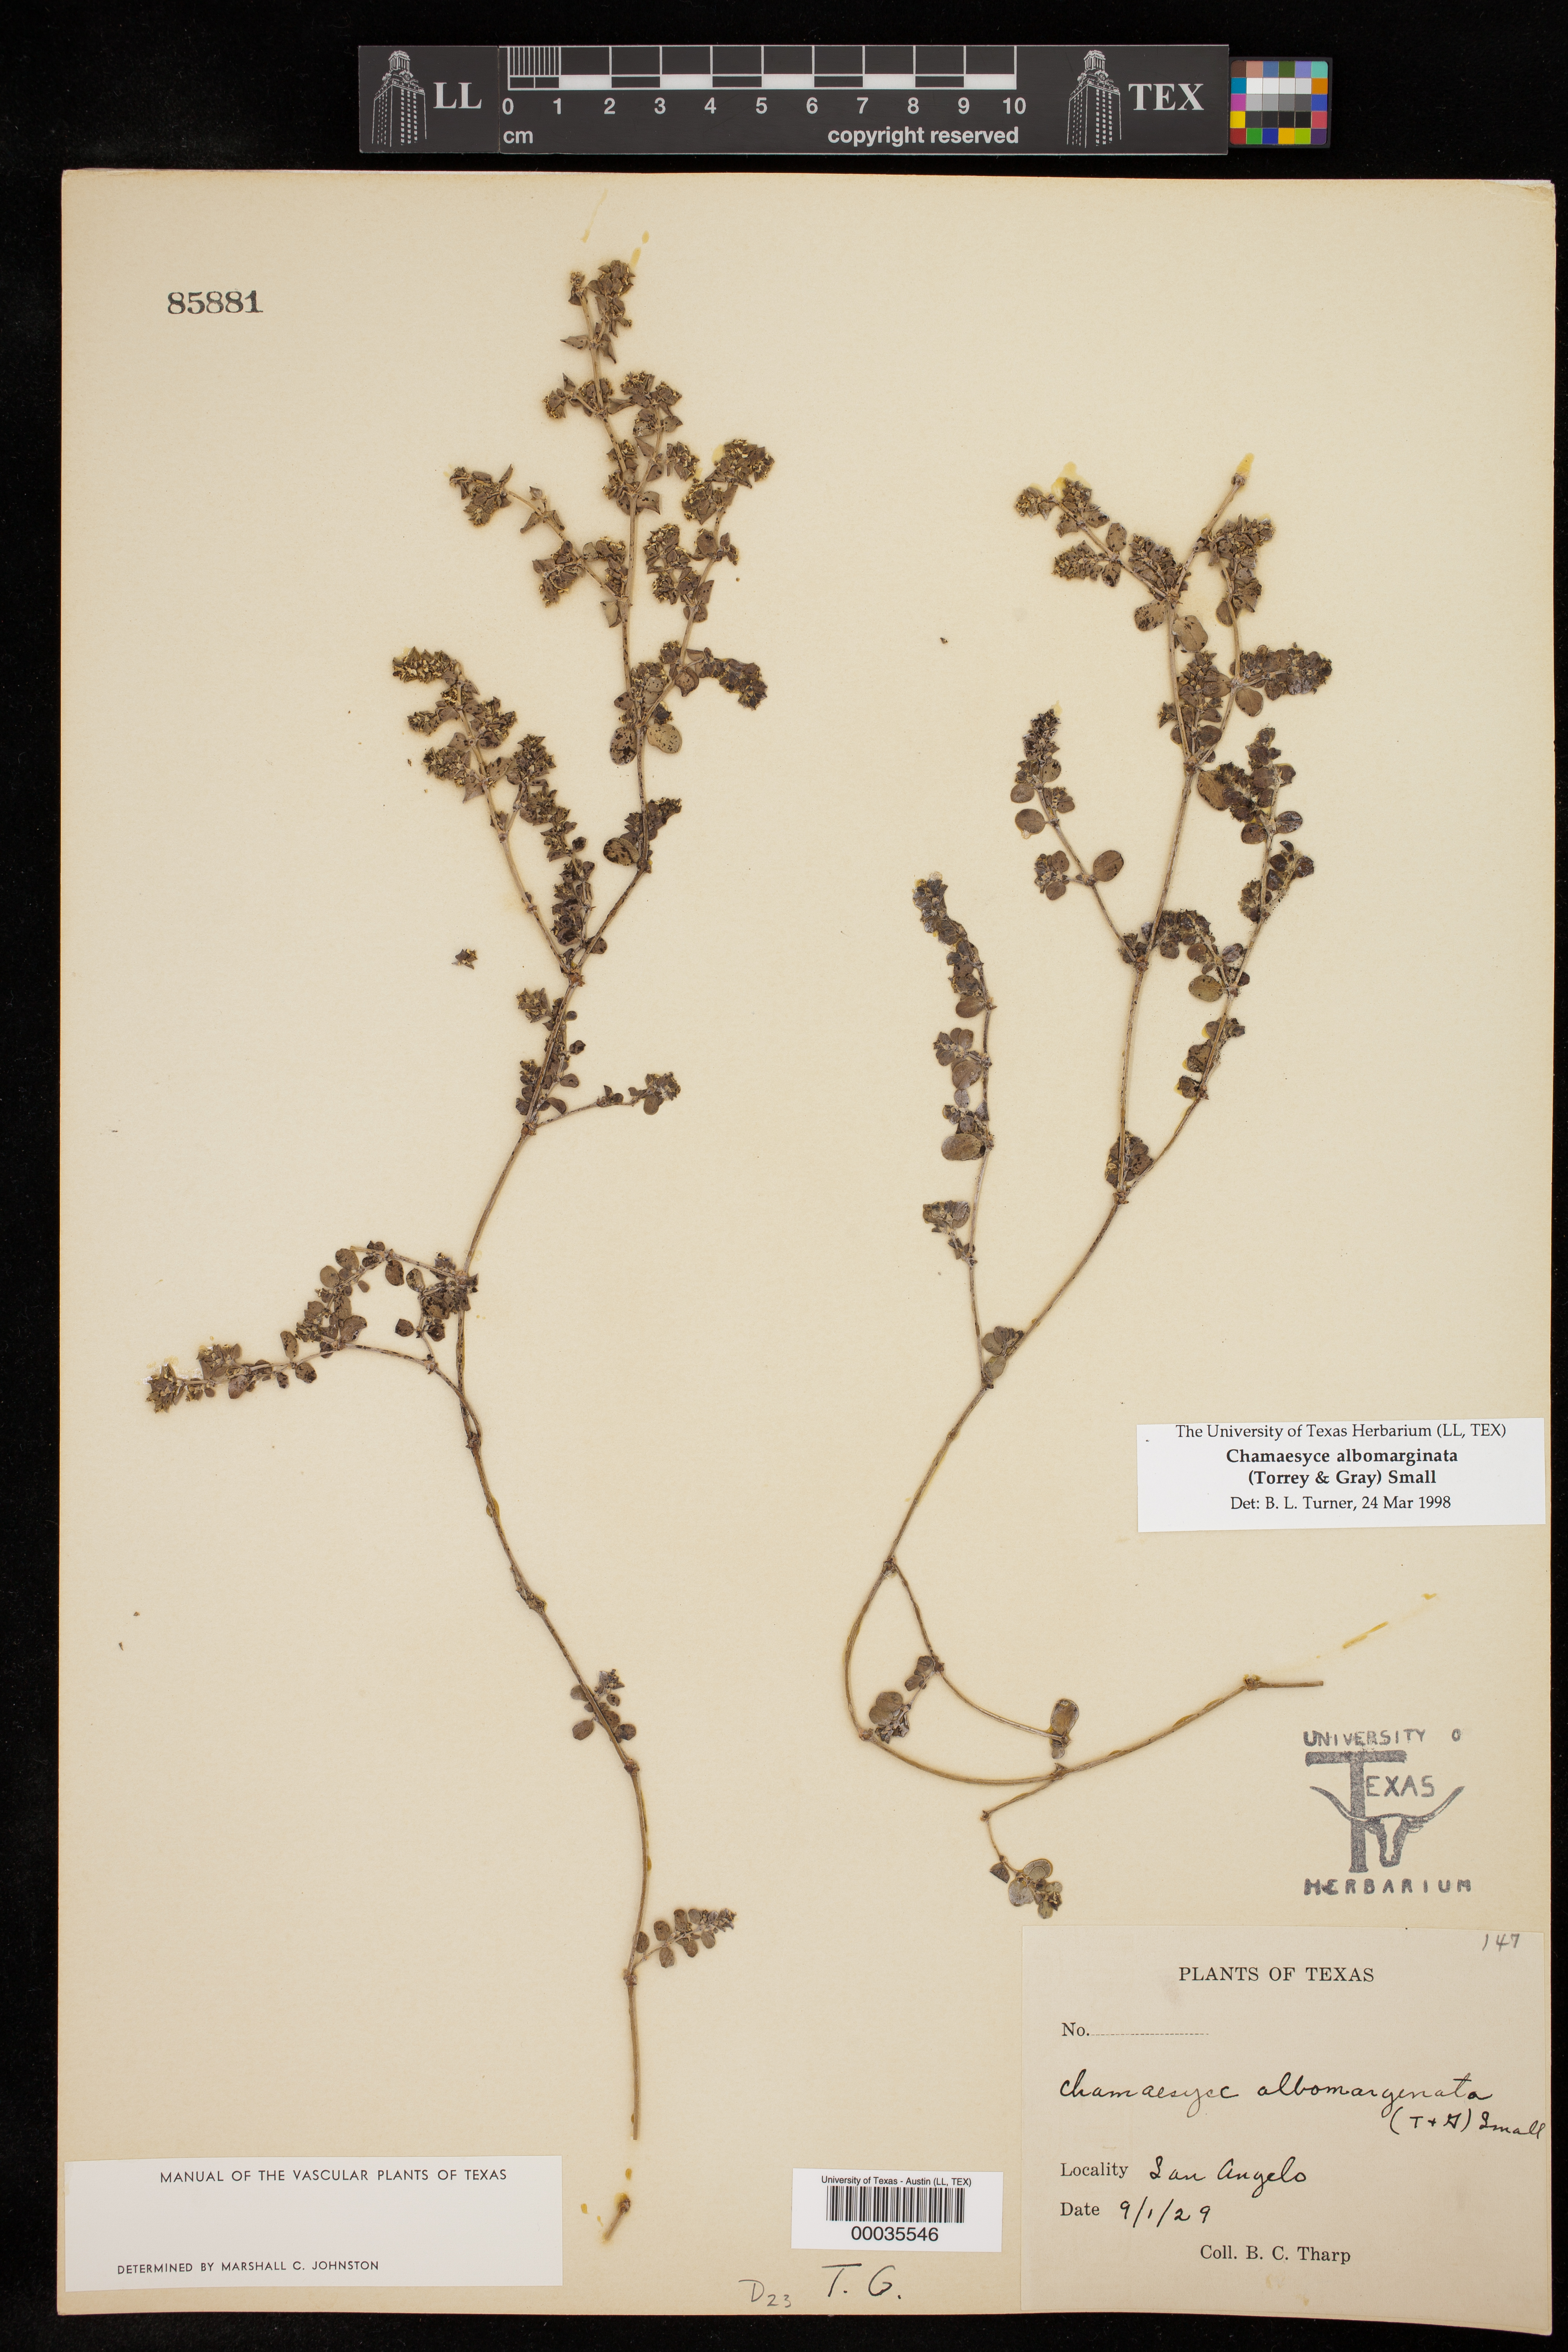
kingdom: Plantae
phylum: Tracheophyta
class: Magnoliopsida
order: Malpighiales
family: Euphorbiaceae
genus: Euphorbia
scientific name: Euphorbia albomarginata
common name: Whitemargin sandmat
